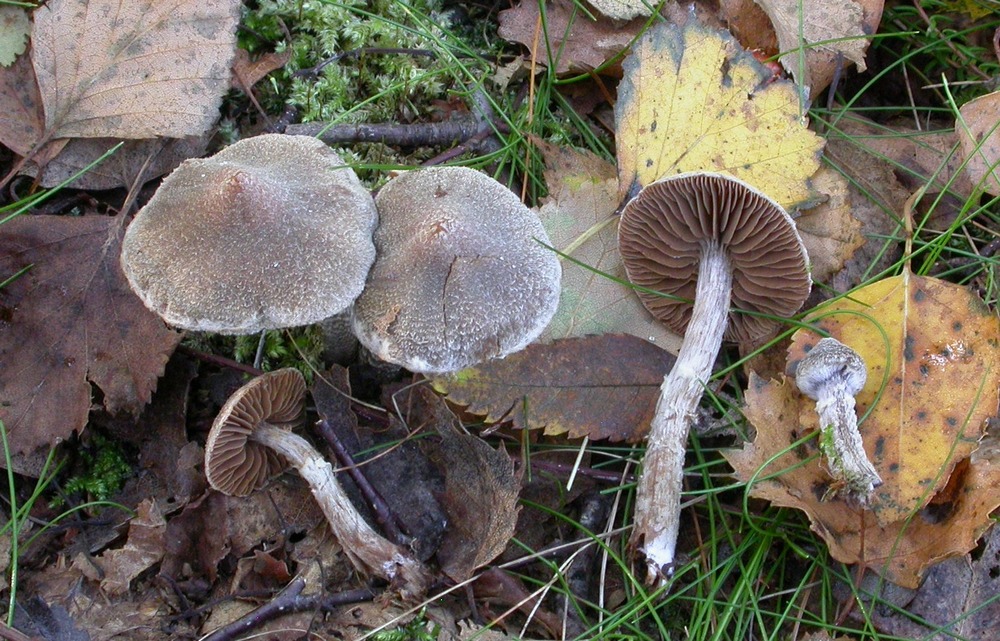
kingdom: Fungi
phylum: Basidiomycota
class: Agaricomycetes
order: Agaricales
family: Cortinariaceae
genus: Cortinarius
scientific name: Cortinarius hemitrichus
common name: hvidfnugget slørhat
